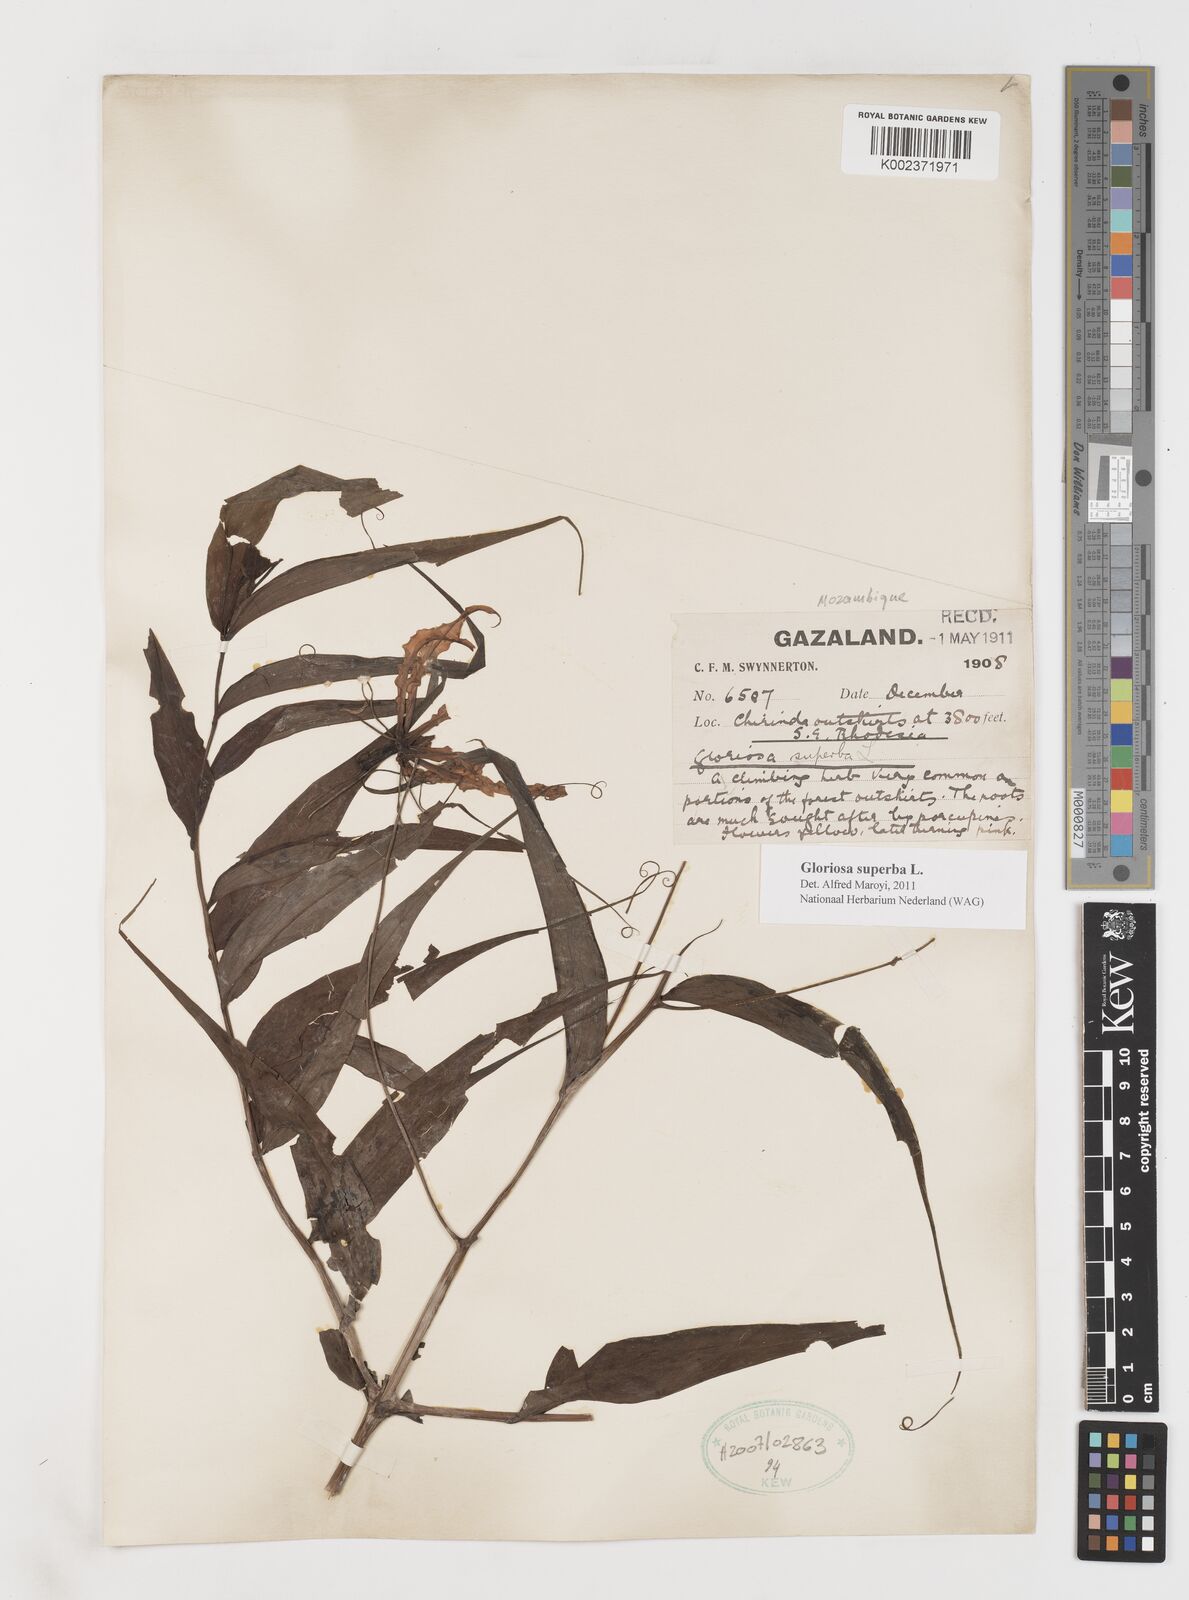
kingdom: Plantae
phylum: Tracheophyta
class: Liliopsida
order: Liliales
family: Colchicaceae
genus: Gloriosa
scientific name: Gloriosa superba
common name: Flame lily
